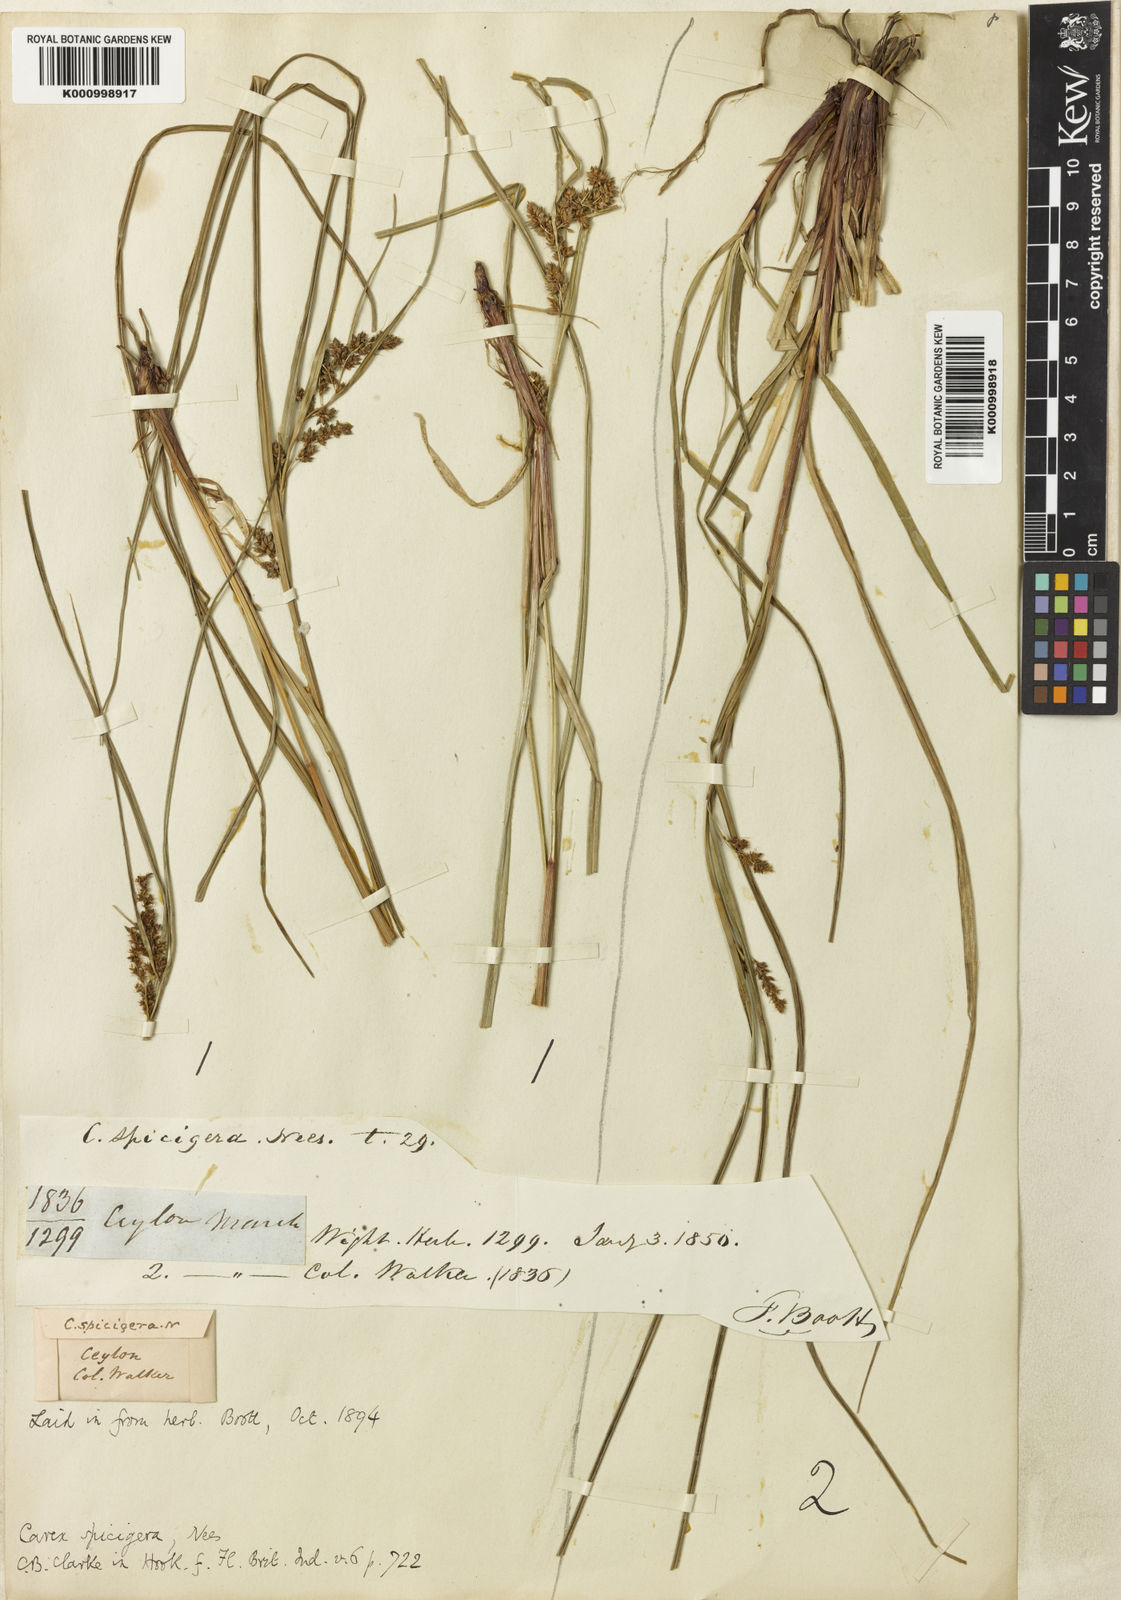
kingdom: Plantae
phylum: Tracheophyta
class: Liliopsida
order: Poales
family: Cyperaceae
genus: Carex
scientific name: Carex spicigera
